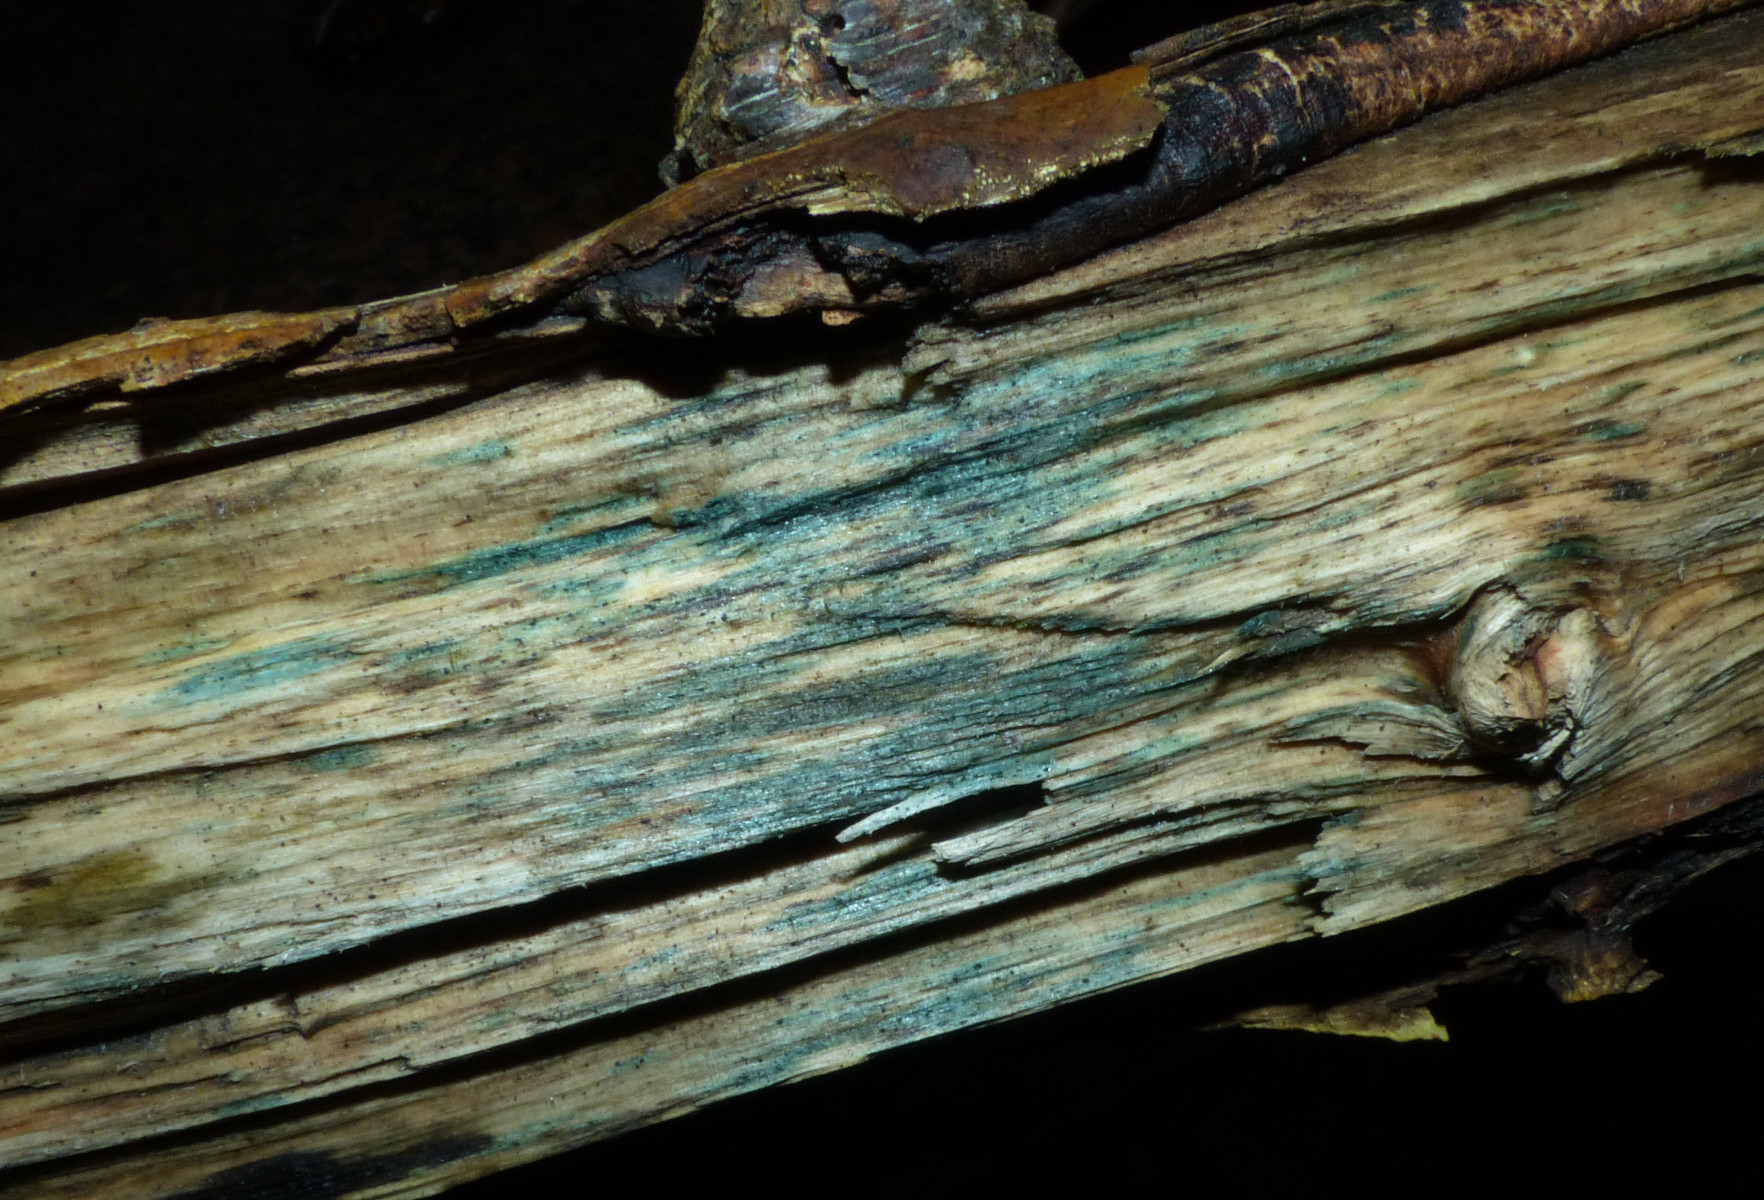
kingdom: Fungi
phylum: Ascomycota
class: Leotiomycetes
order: Helotiales
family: Helotiaceae
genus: Durella
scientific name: Durella atrocyanea
